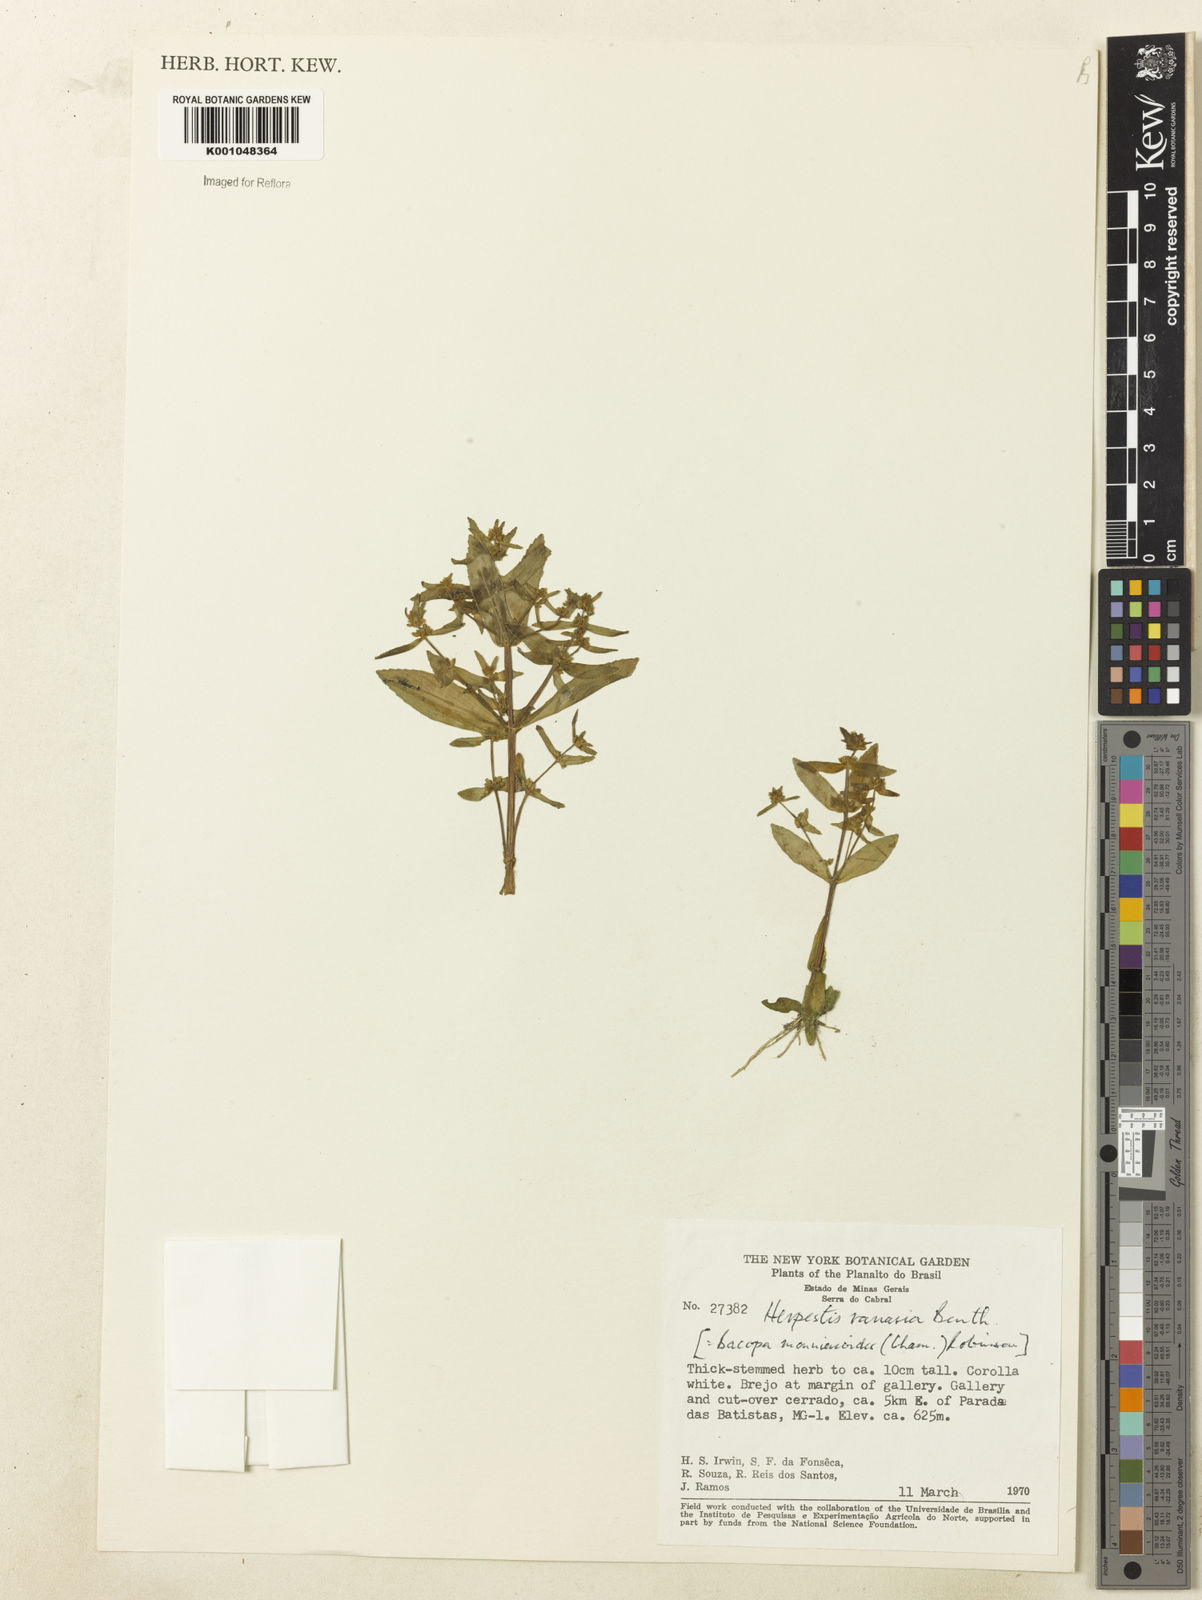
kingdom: Plantae
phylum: Tracheophyta
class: Magnoliopsida
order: Lamiales
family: Plantaginaceae
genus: Bacopa
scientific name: Bacopa monnierioides
